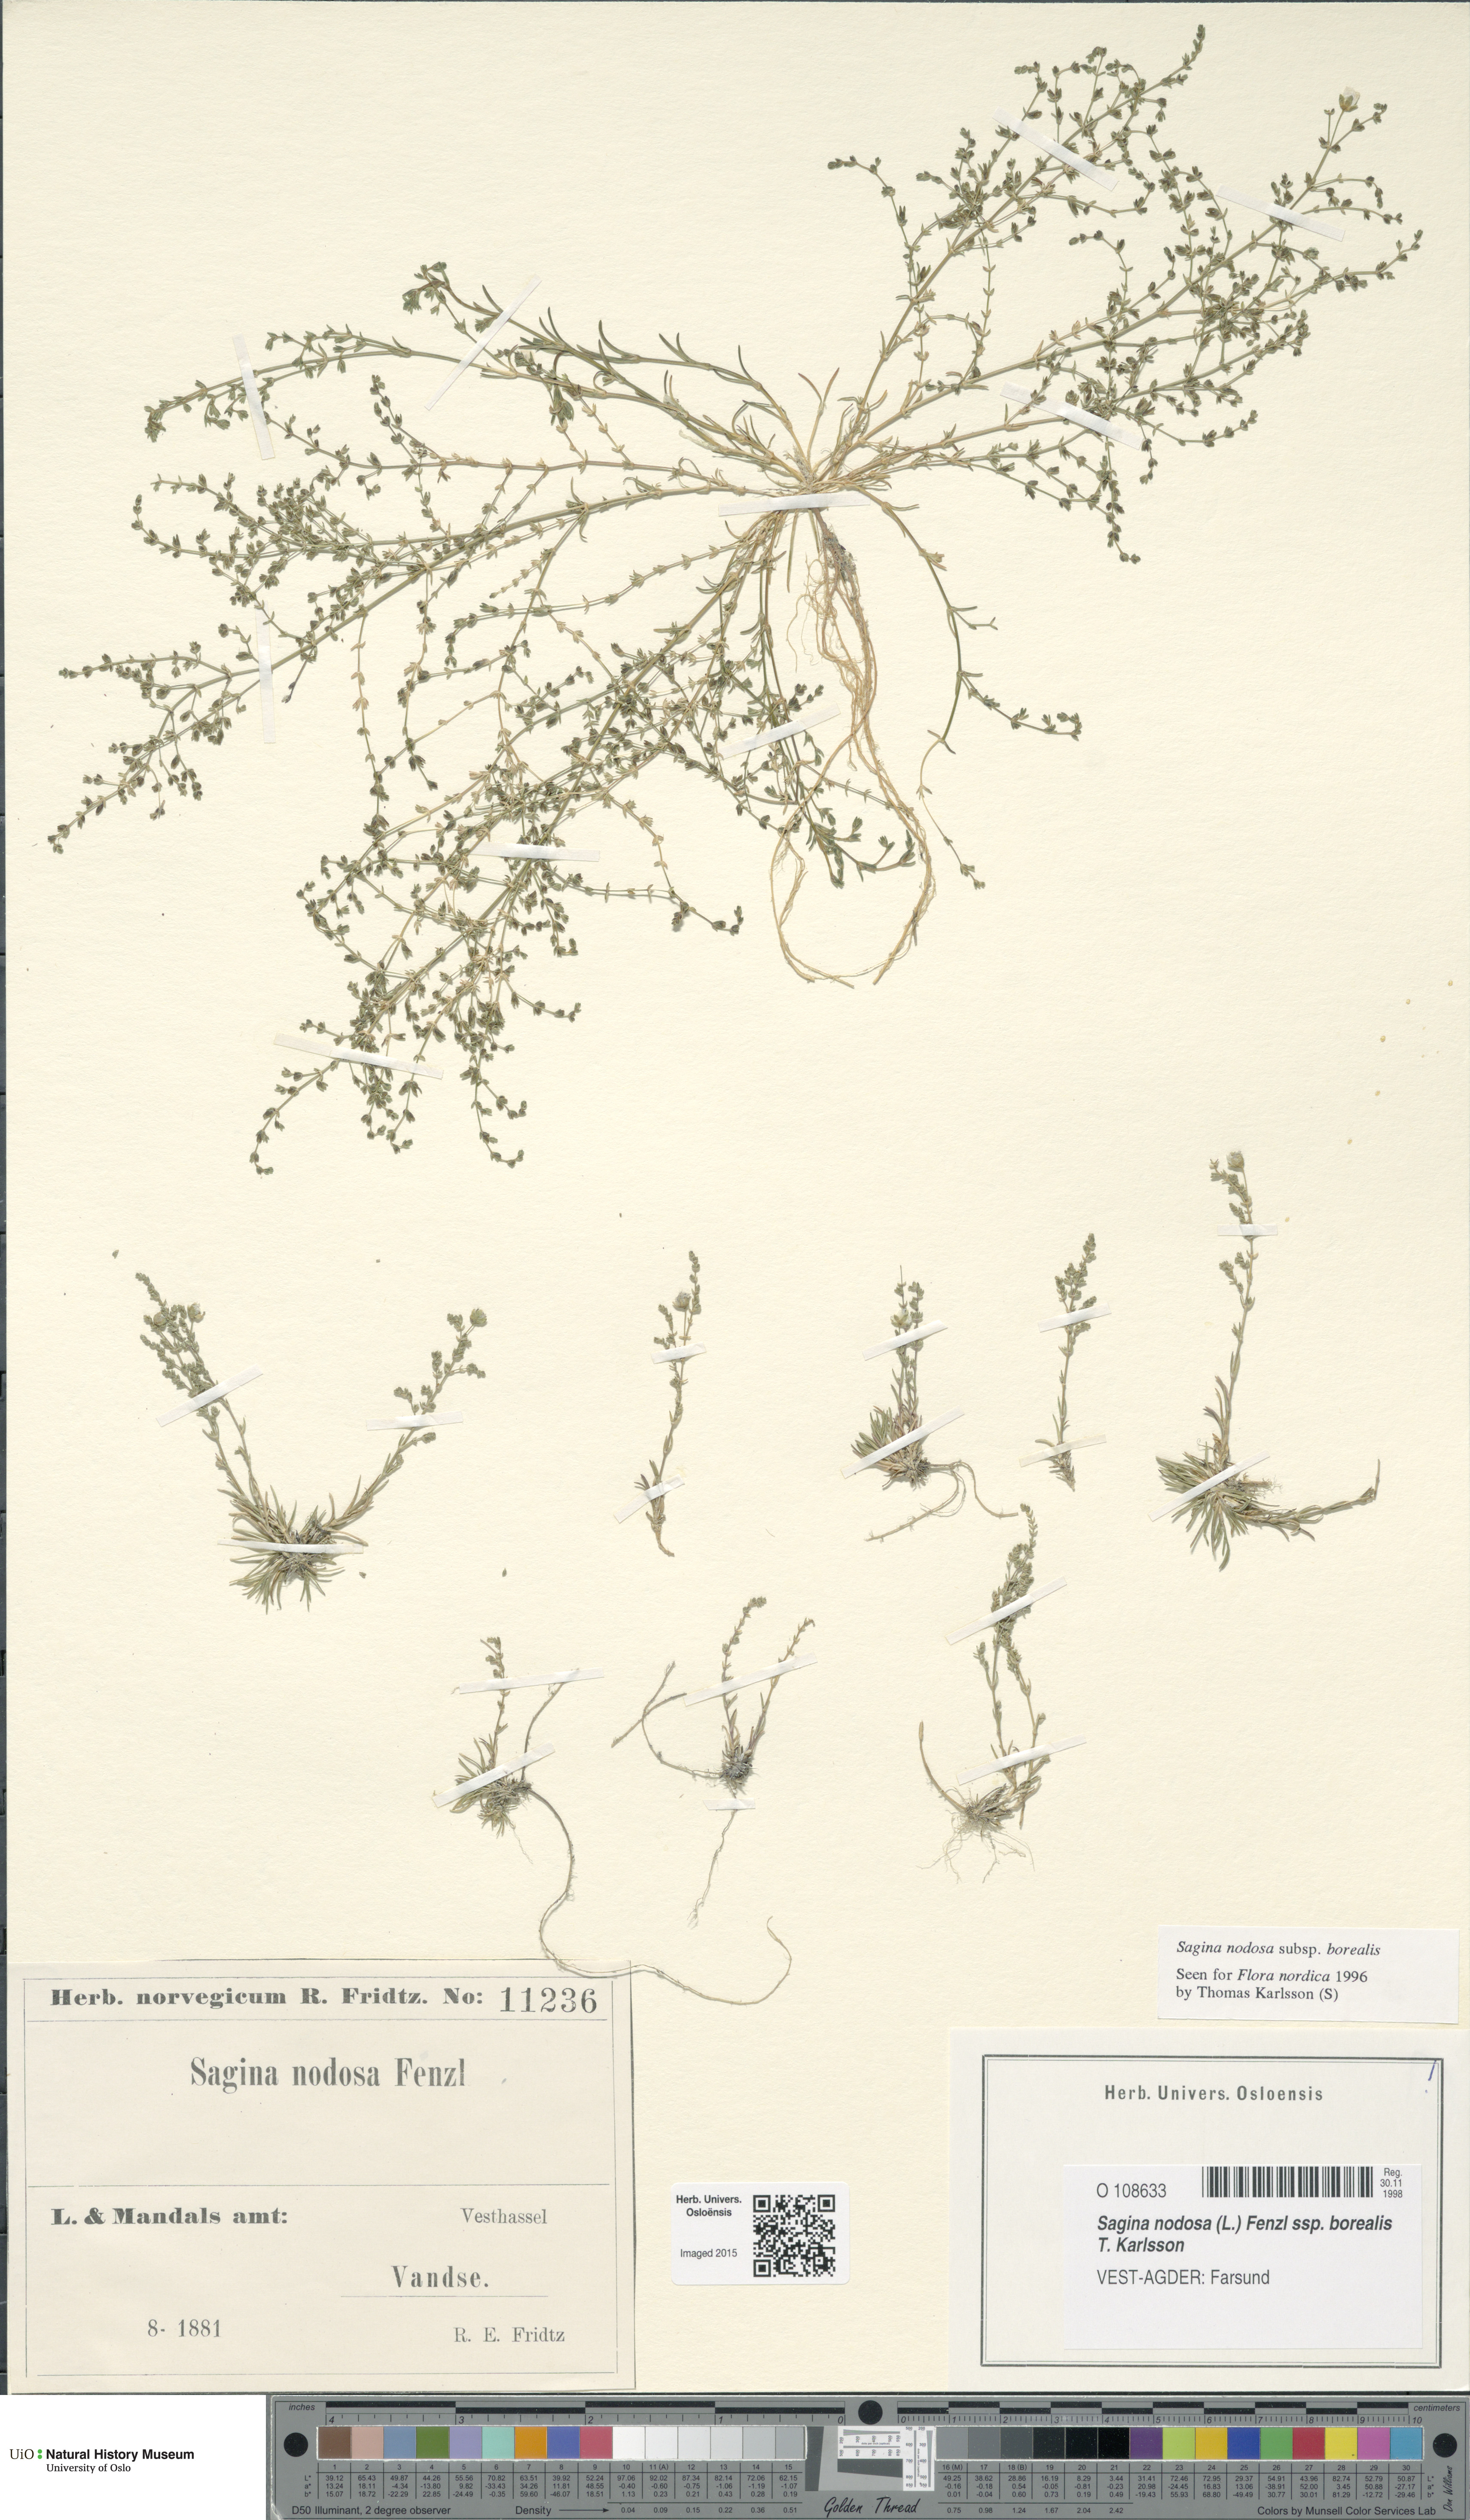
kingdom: Plantae
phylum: Tracheophyta
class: Magnoliopsida
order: Caryophyllales
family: Caryophyllaceae
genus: Sagina
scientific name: Sagina nodosa
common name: Knotted pearlwort
